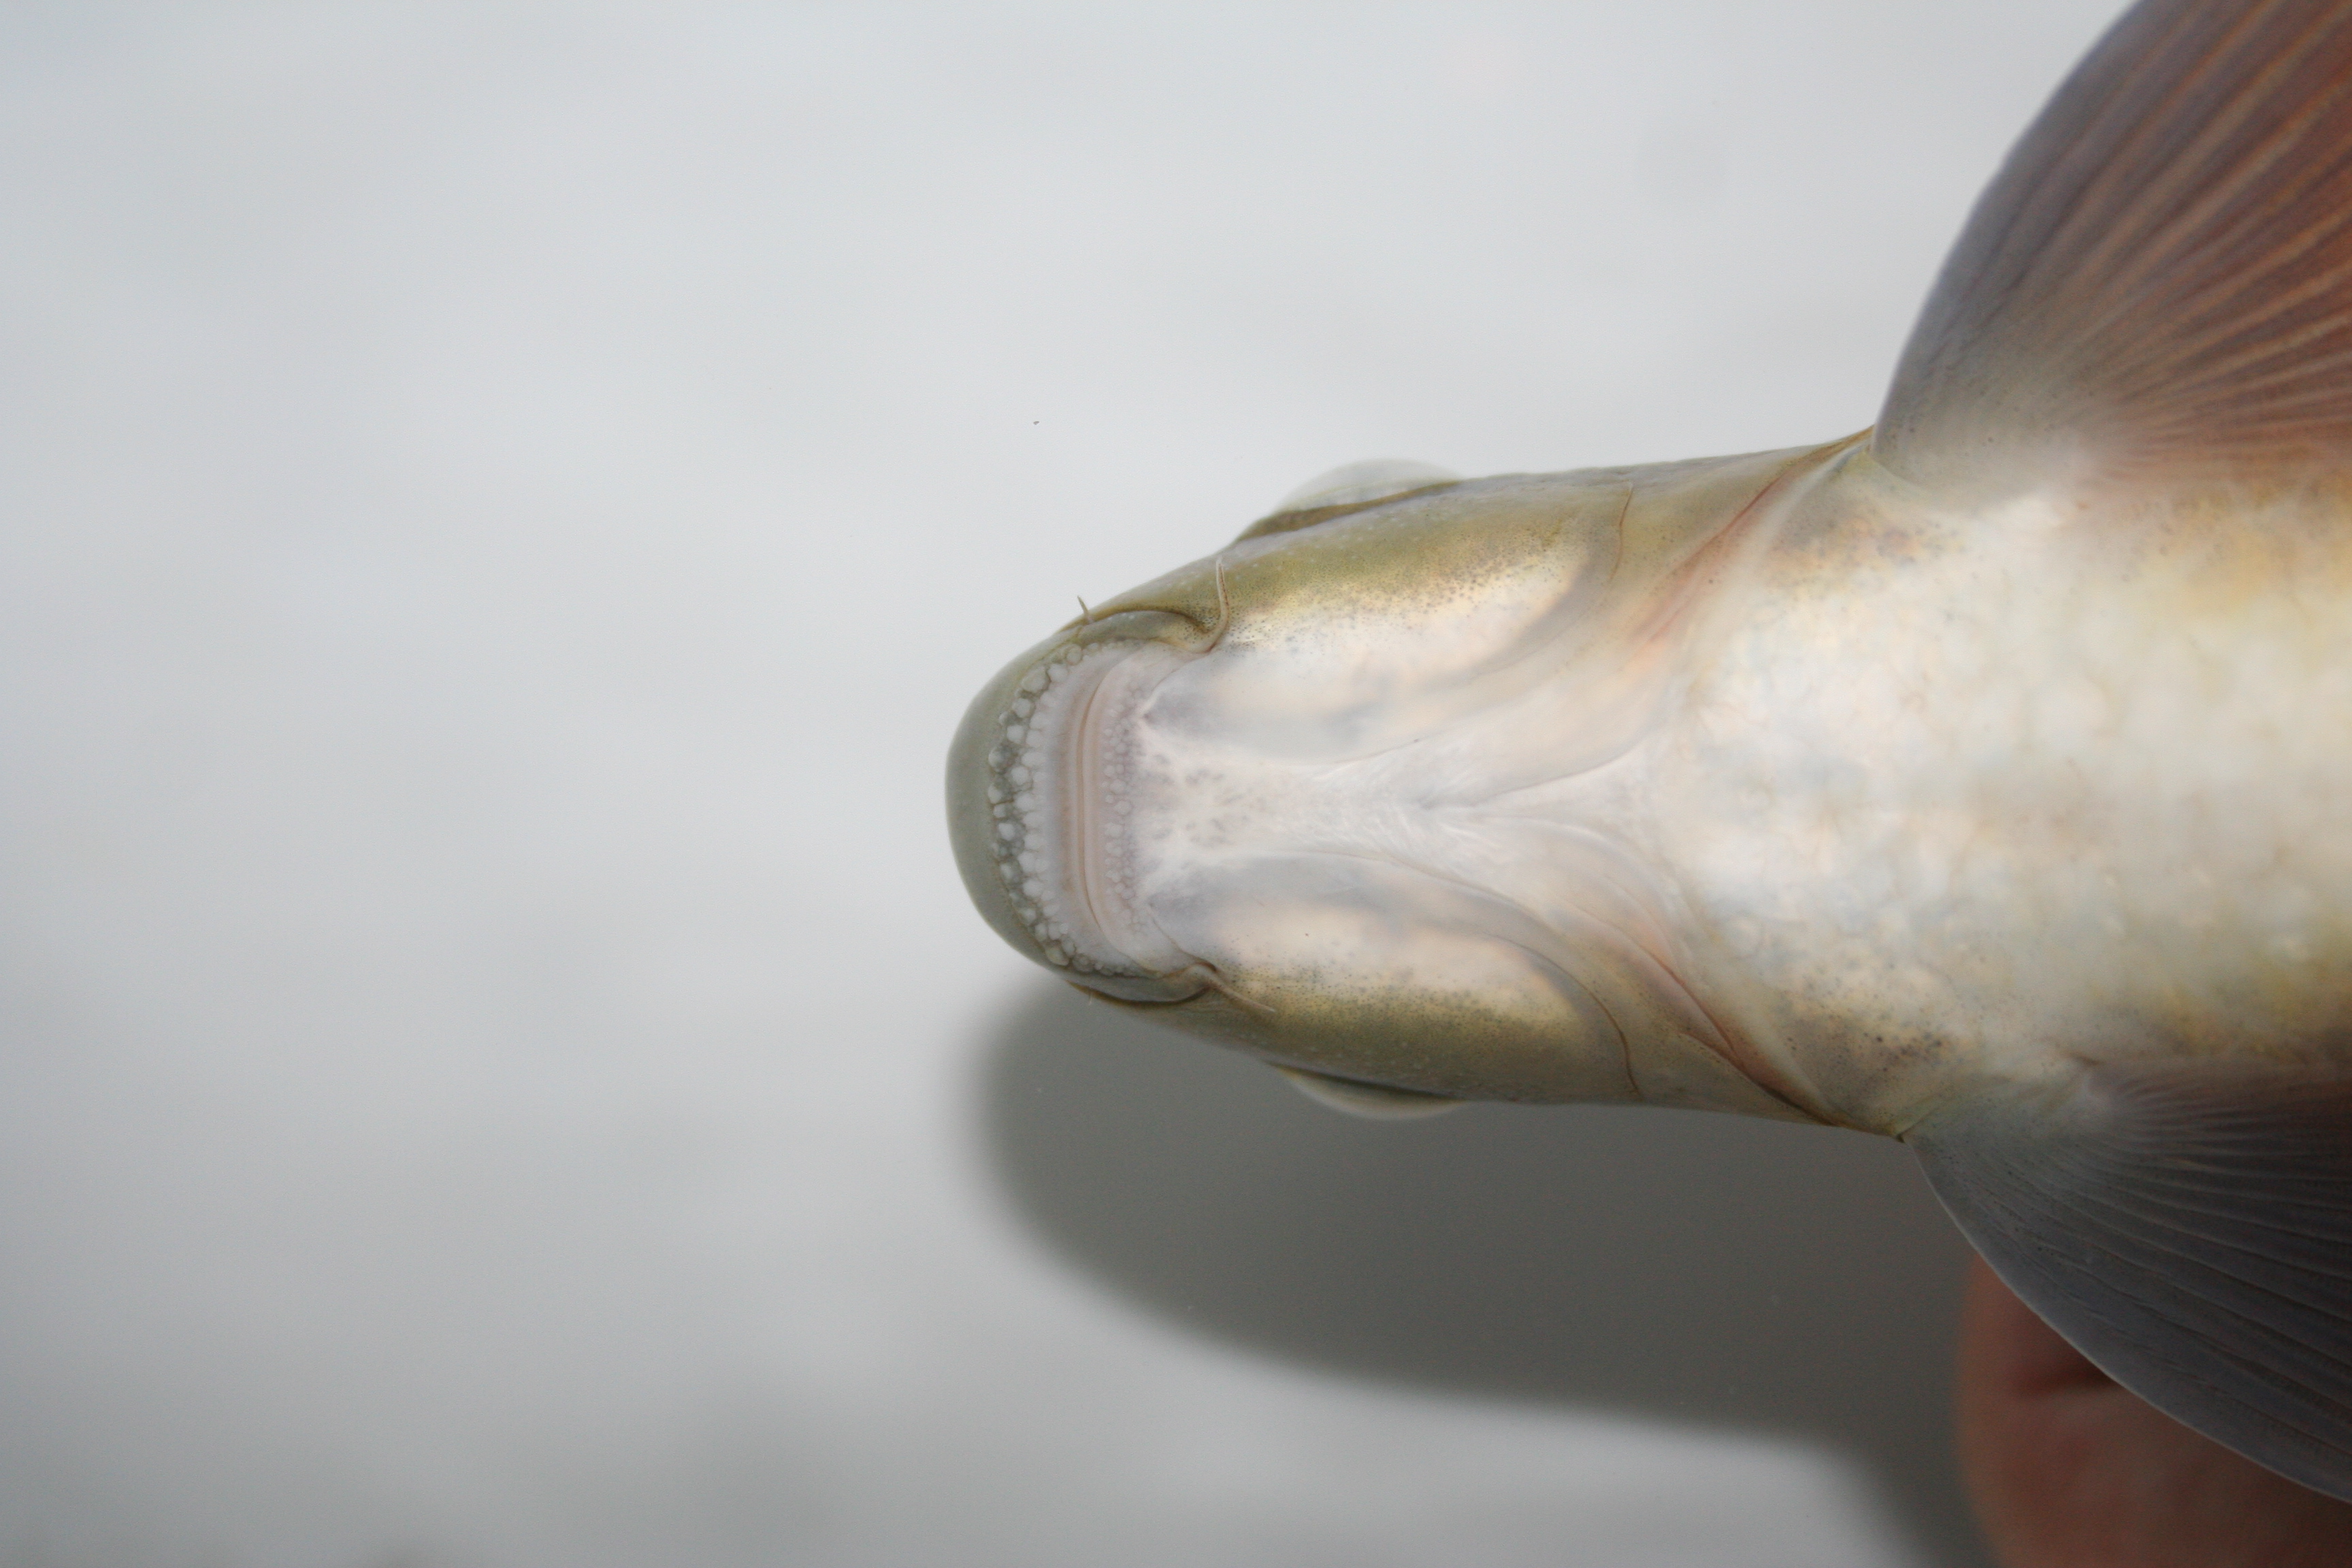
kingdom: Animalia
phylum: Chordata
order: Cypriniformes
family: Cyprinidae
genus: Labeobarbus
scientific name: Labeobarbus ensifer
